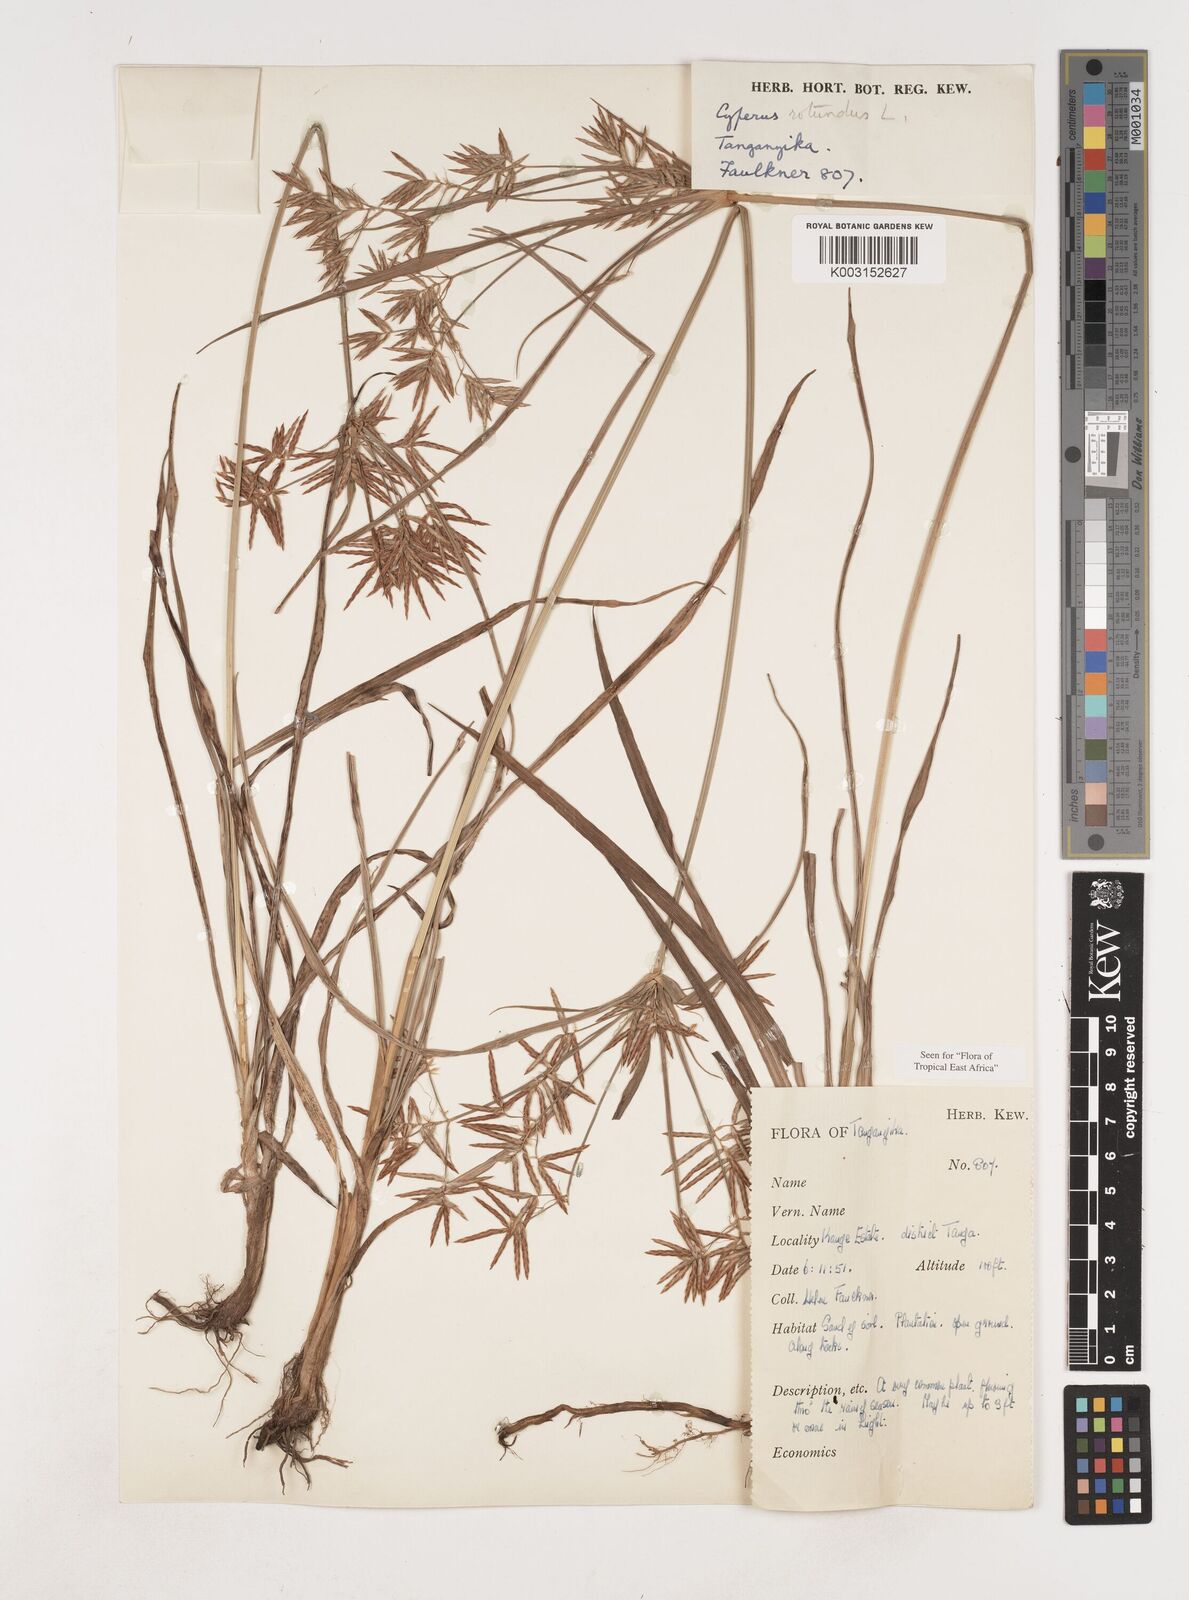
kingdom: Plantae
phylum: Tracheophyta
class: Liliopsida
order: Poales
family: Cyperaceae
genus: Cyperus
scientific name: Cyperus rotundus
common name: Nutgrass
